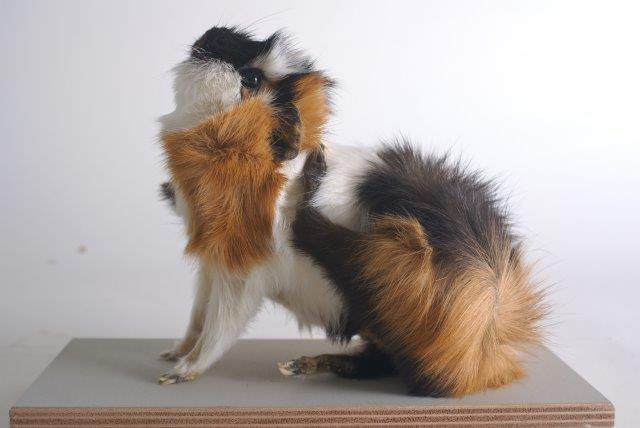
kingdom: Animalia
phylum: Chordata
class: Mammalia
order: Rodentia
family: Caviidae
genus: Cavia
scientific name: Cavia aperea
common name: Brazilian Guinea Pig
